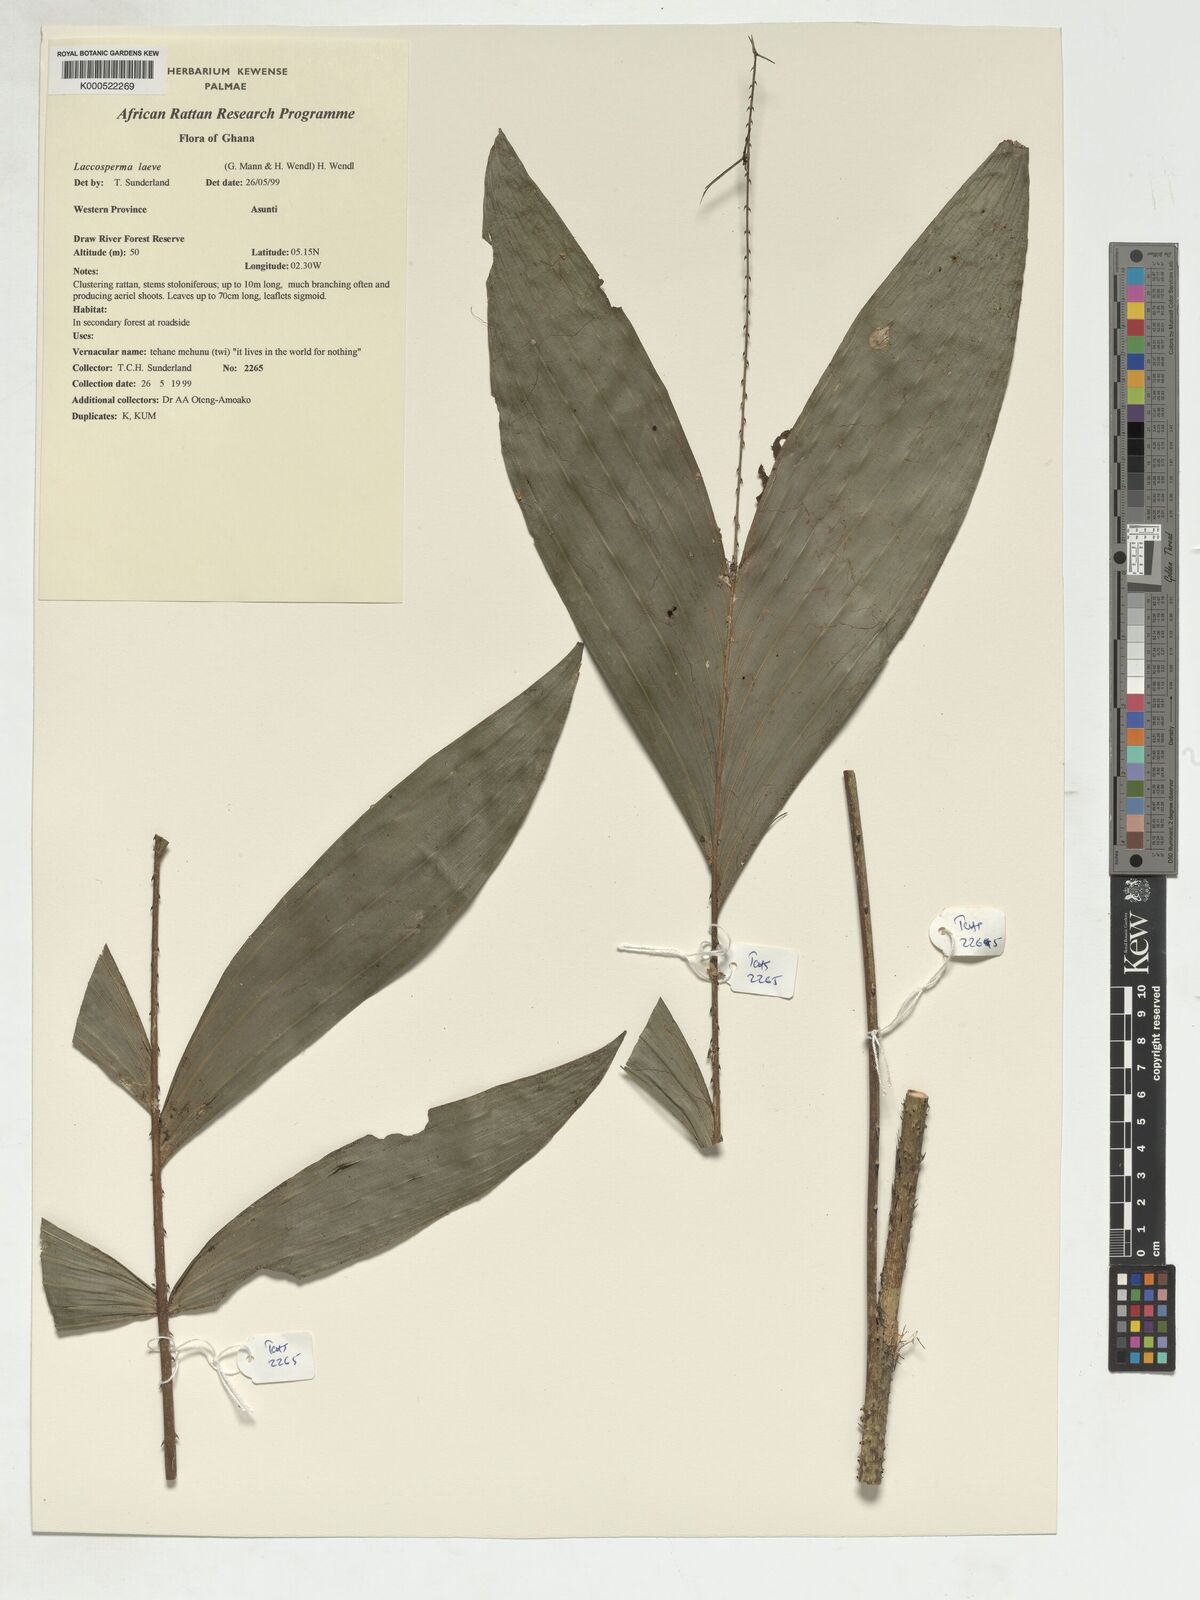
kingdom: Plantae
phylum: Tracheophyta
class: Liliopsida
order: Arecales
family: Arecaceae
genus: Laccosperma
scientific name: Laccosperma laeve
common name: Rattan
